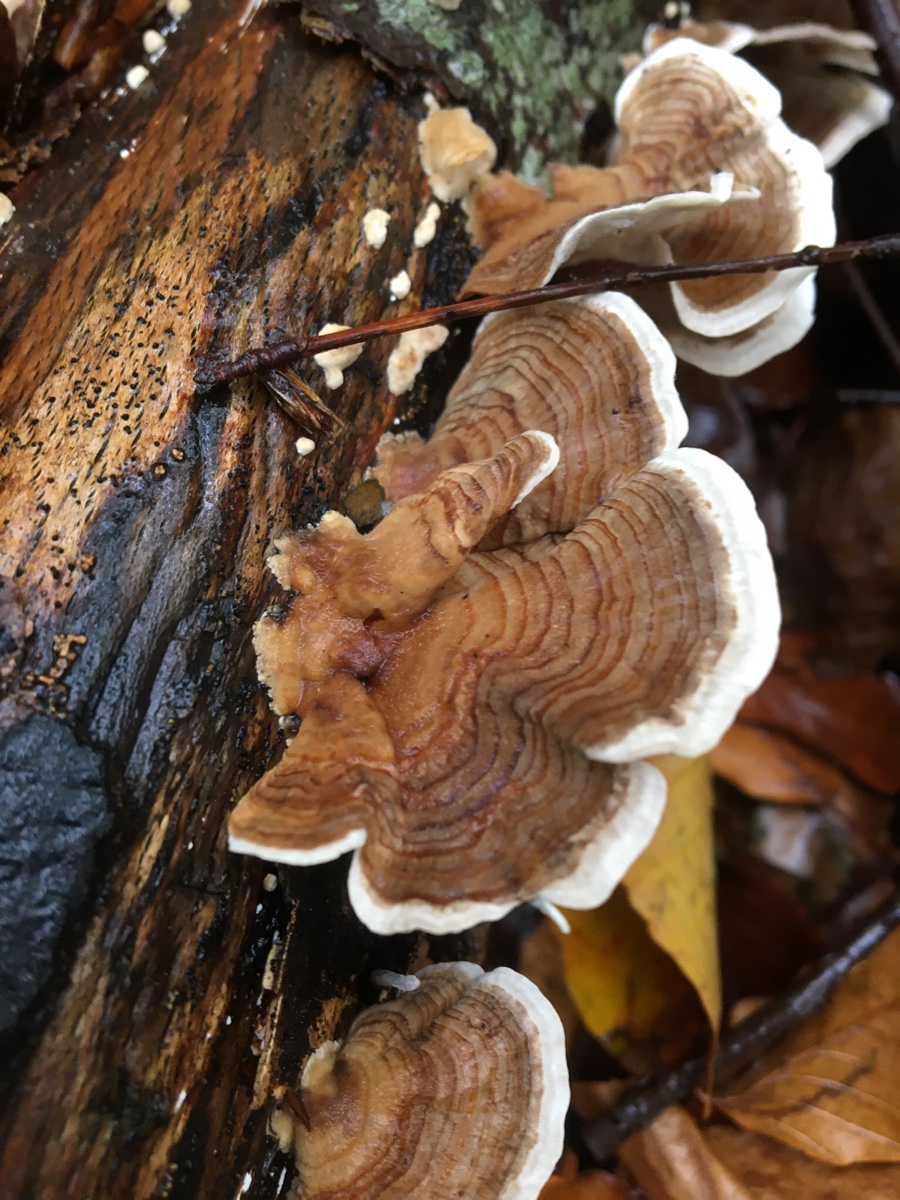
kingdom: Fungi
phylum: Basidiomycota
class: Agaricomycetes
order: Polyporales
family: Polyporaceae
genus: Trametes
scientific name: Trametes versicolor
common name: broget læderporesvamp
